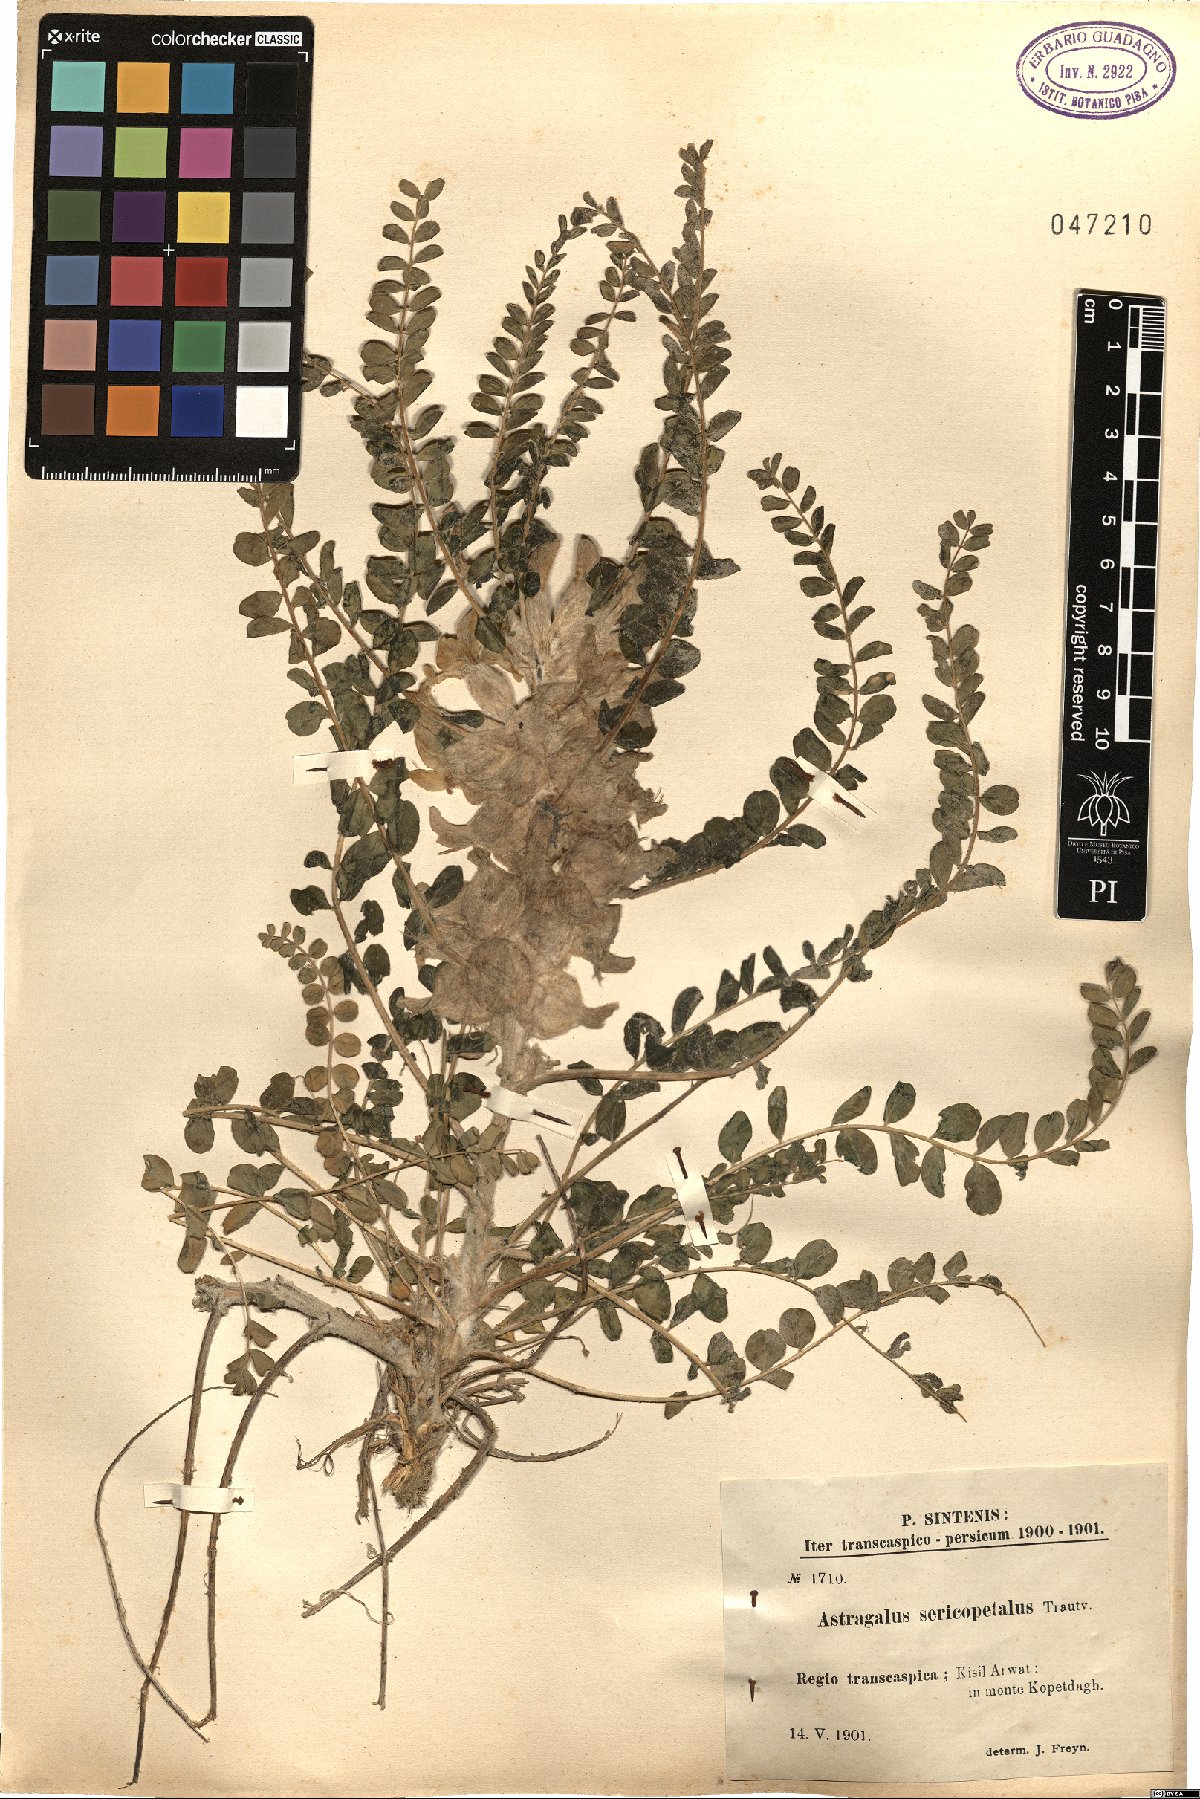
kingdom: Plantae
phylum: Tracheophyta
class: Magnoliopsida
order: Fabales
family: Fabaceae
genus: Astragalus
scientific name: Astragalus sericopetalus
